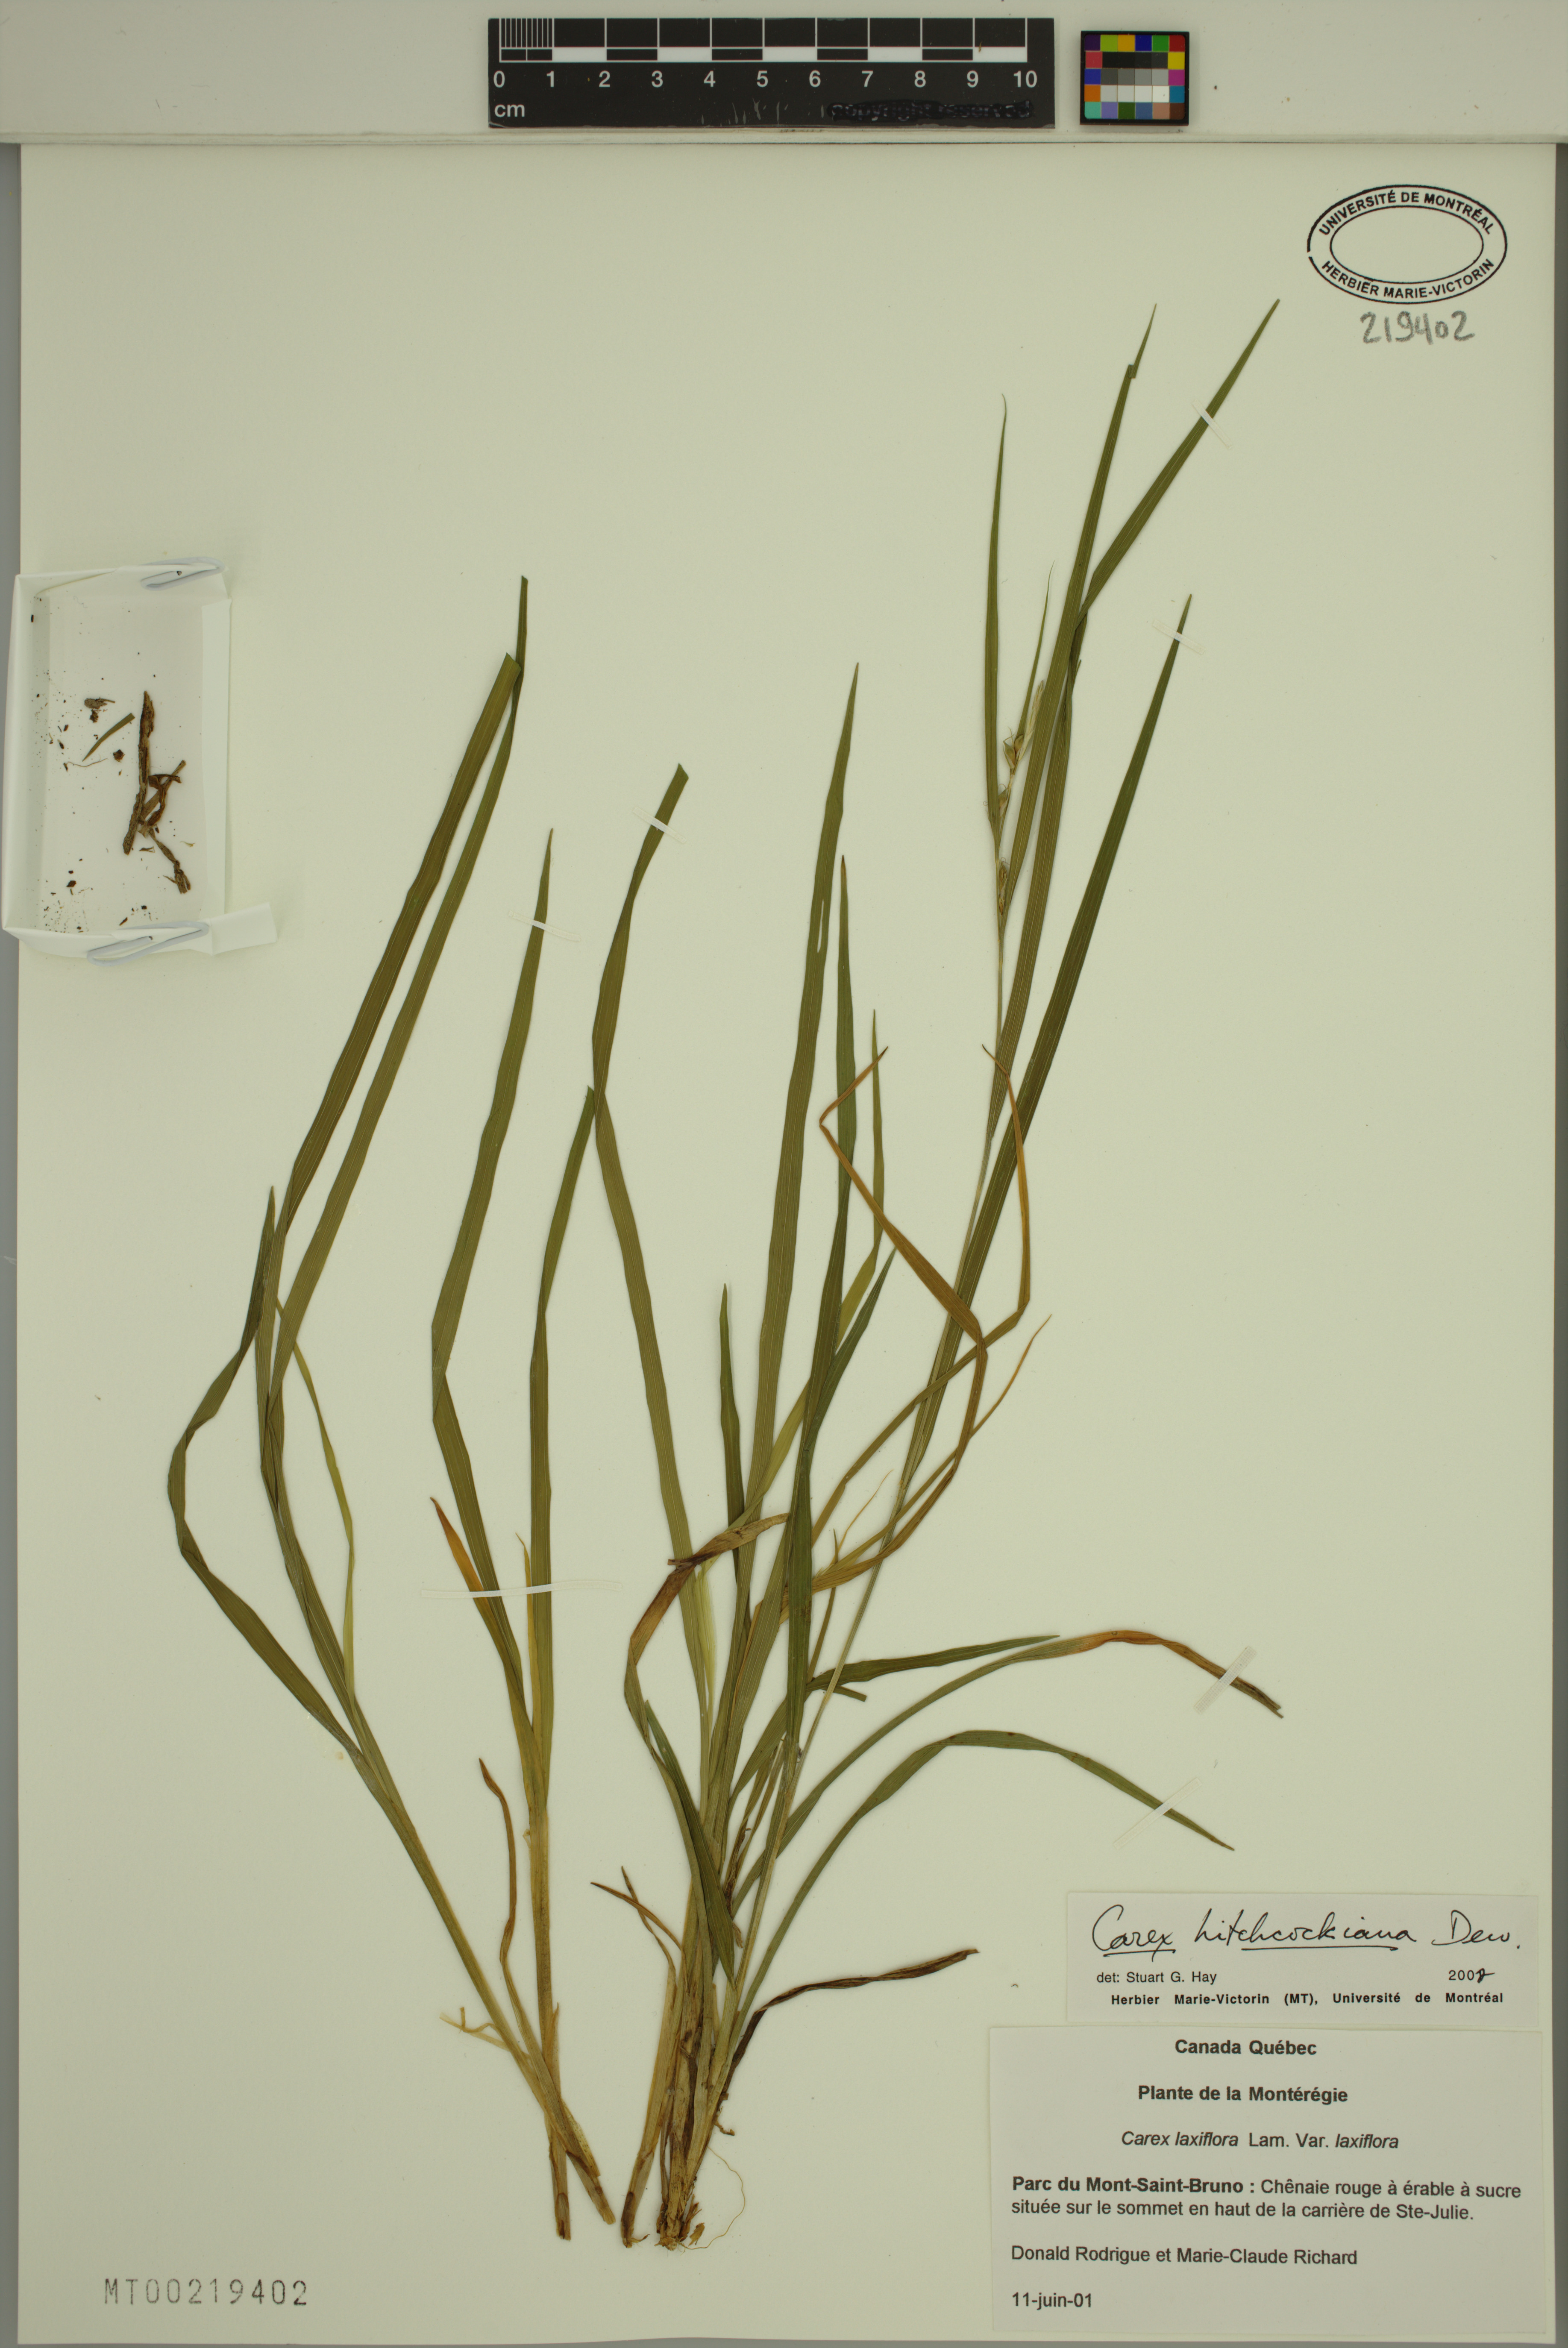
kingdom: Plantae
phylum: Tracheophyta
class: Liliopsida
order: Poales
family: Cyperaceae
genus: Carex
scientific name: Carex hitchcockiana
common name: Hairy grey sedge
